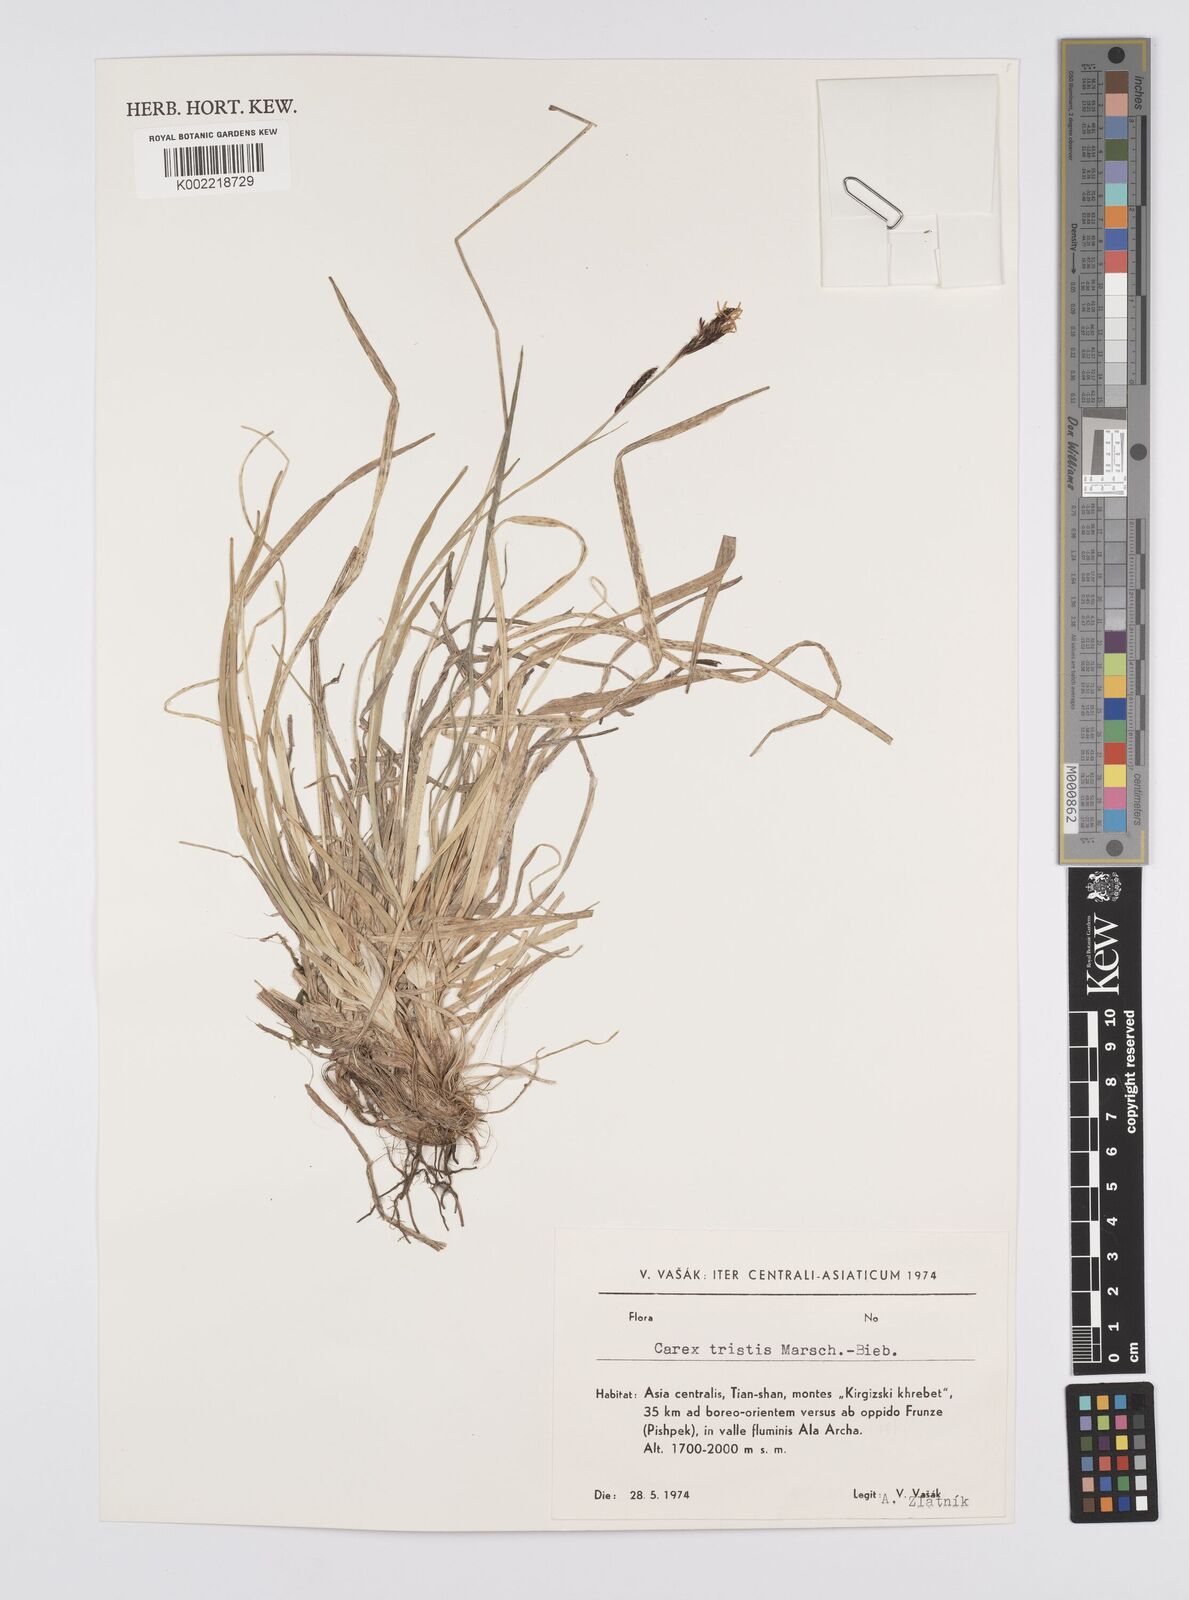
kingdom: Plantae
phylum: Tracheophyta
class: Liliopsida
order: Poales
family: Cyperaceae
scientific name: Cyperaceae
